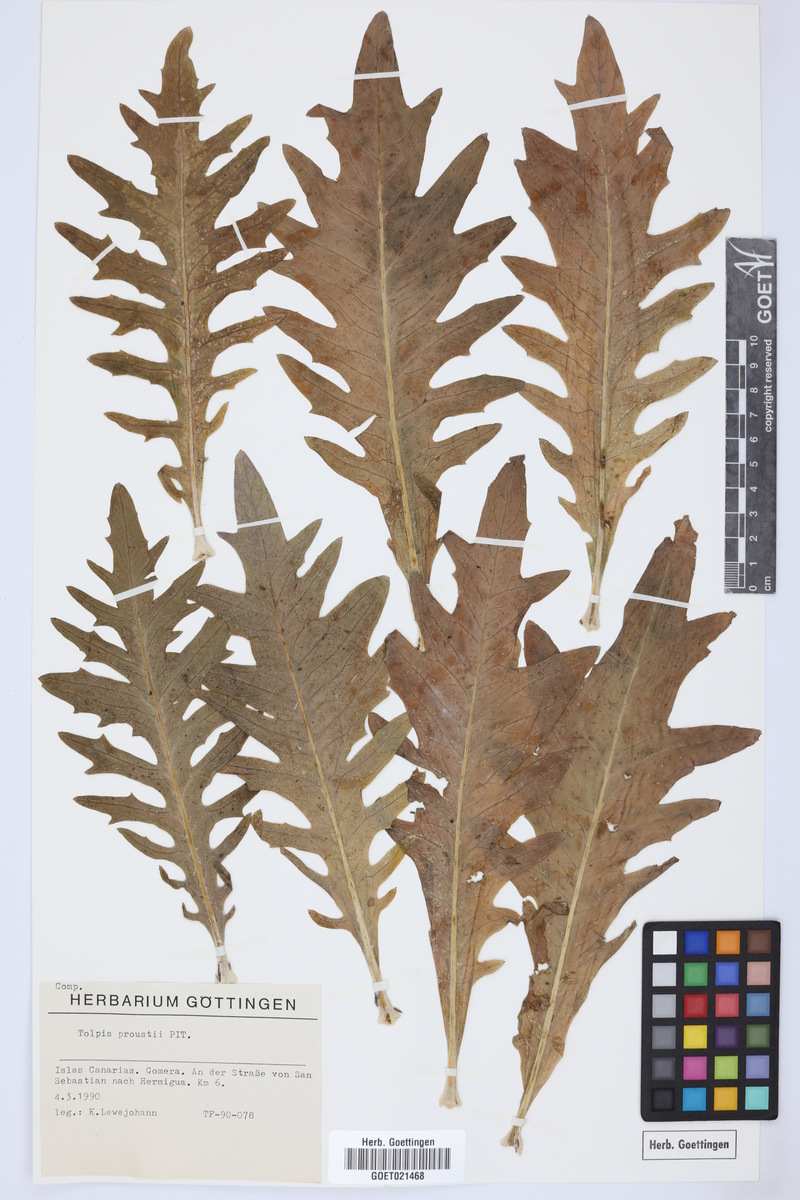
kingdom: Plantae
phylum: Tracheophyta
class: Magnoliopsida
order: Asterales
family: Asteraceae
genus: Tolpis
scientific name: Tolpis proustii
